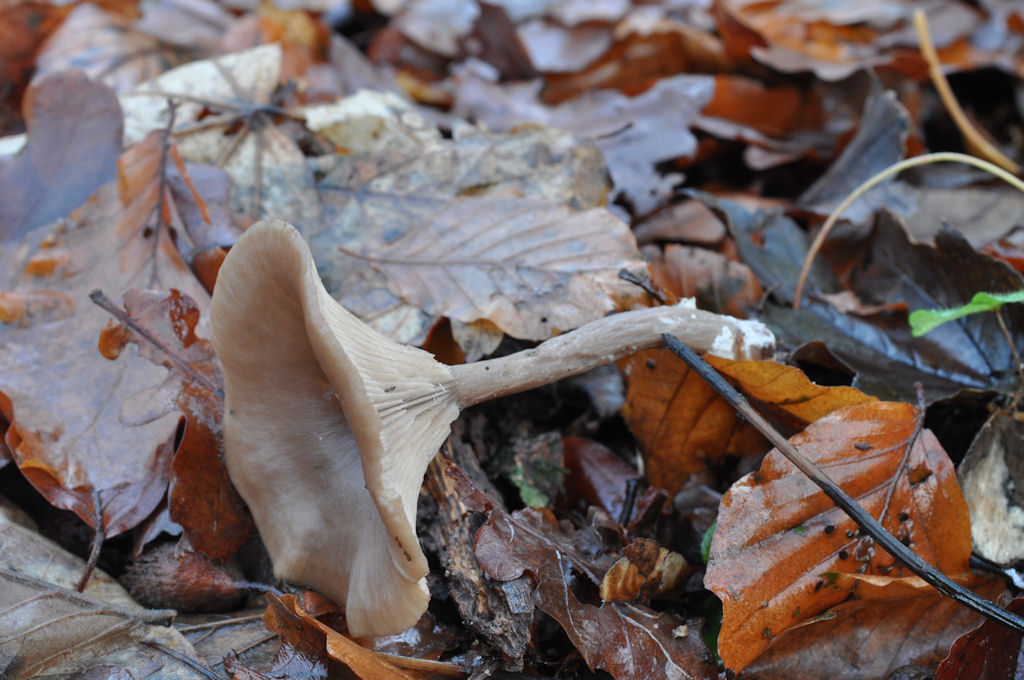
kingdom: Fungi
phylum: Basidiomycota
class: Agaricomycetes
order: Agaricales
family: Pseudoclitocybaceae
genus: Pseudoclitocybe
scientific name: Pseudoclitocybe cyathiformis
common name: almindelig bægertragthat
